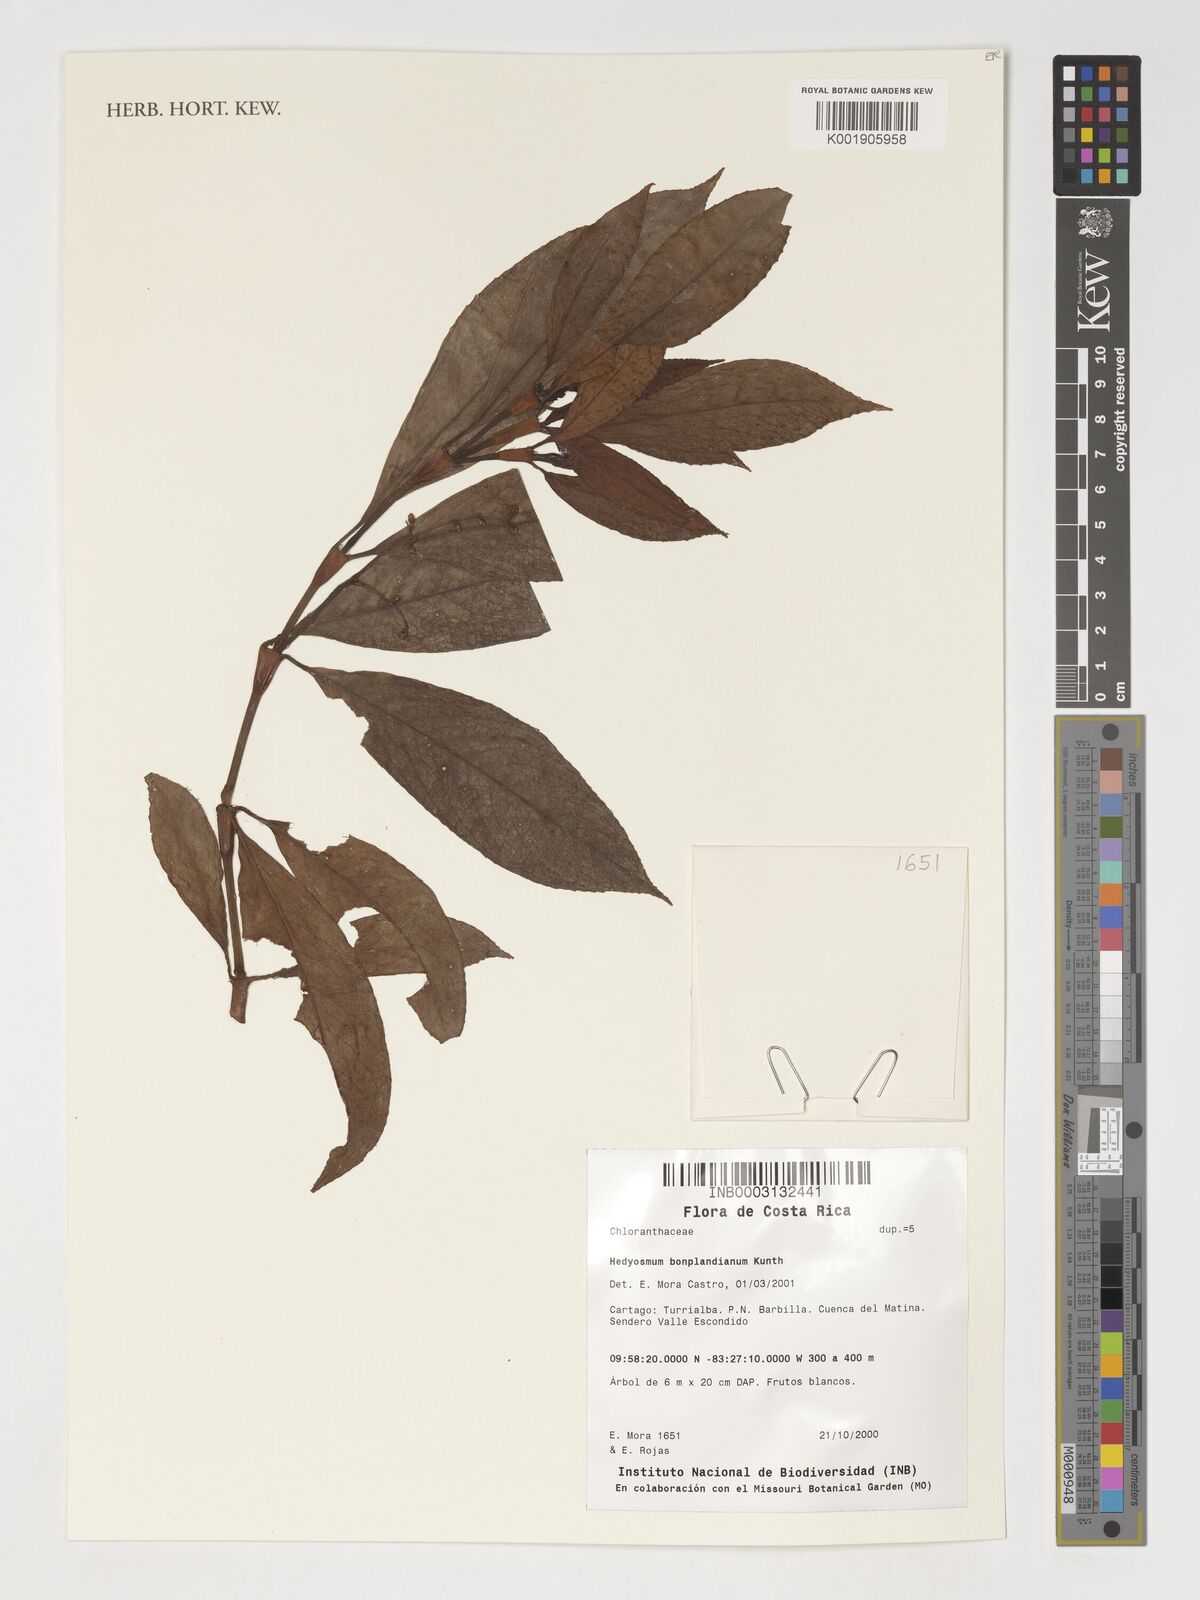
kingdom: Plantae
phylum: Tracheophyta
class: Magnoliopsida
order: Chloranthales
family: Chloranthaceae
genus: Hedyosmum
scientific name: Hedyosmum bonplandianum
